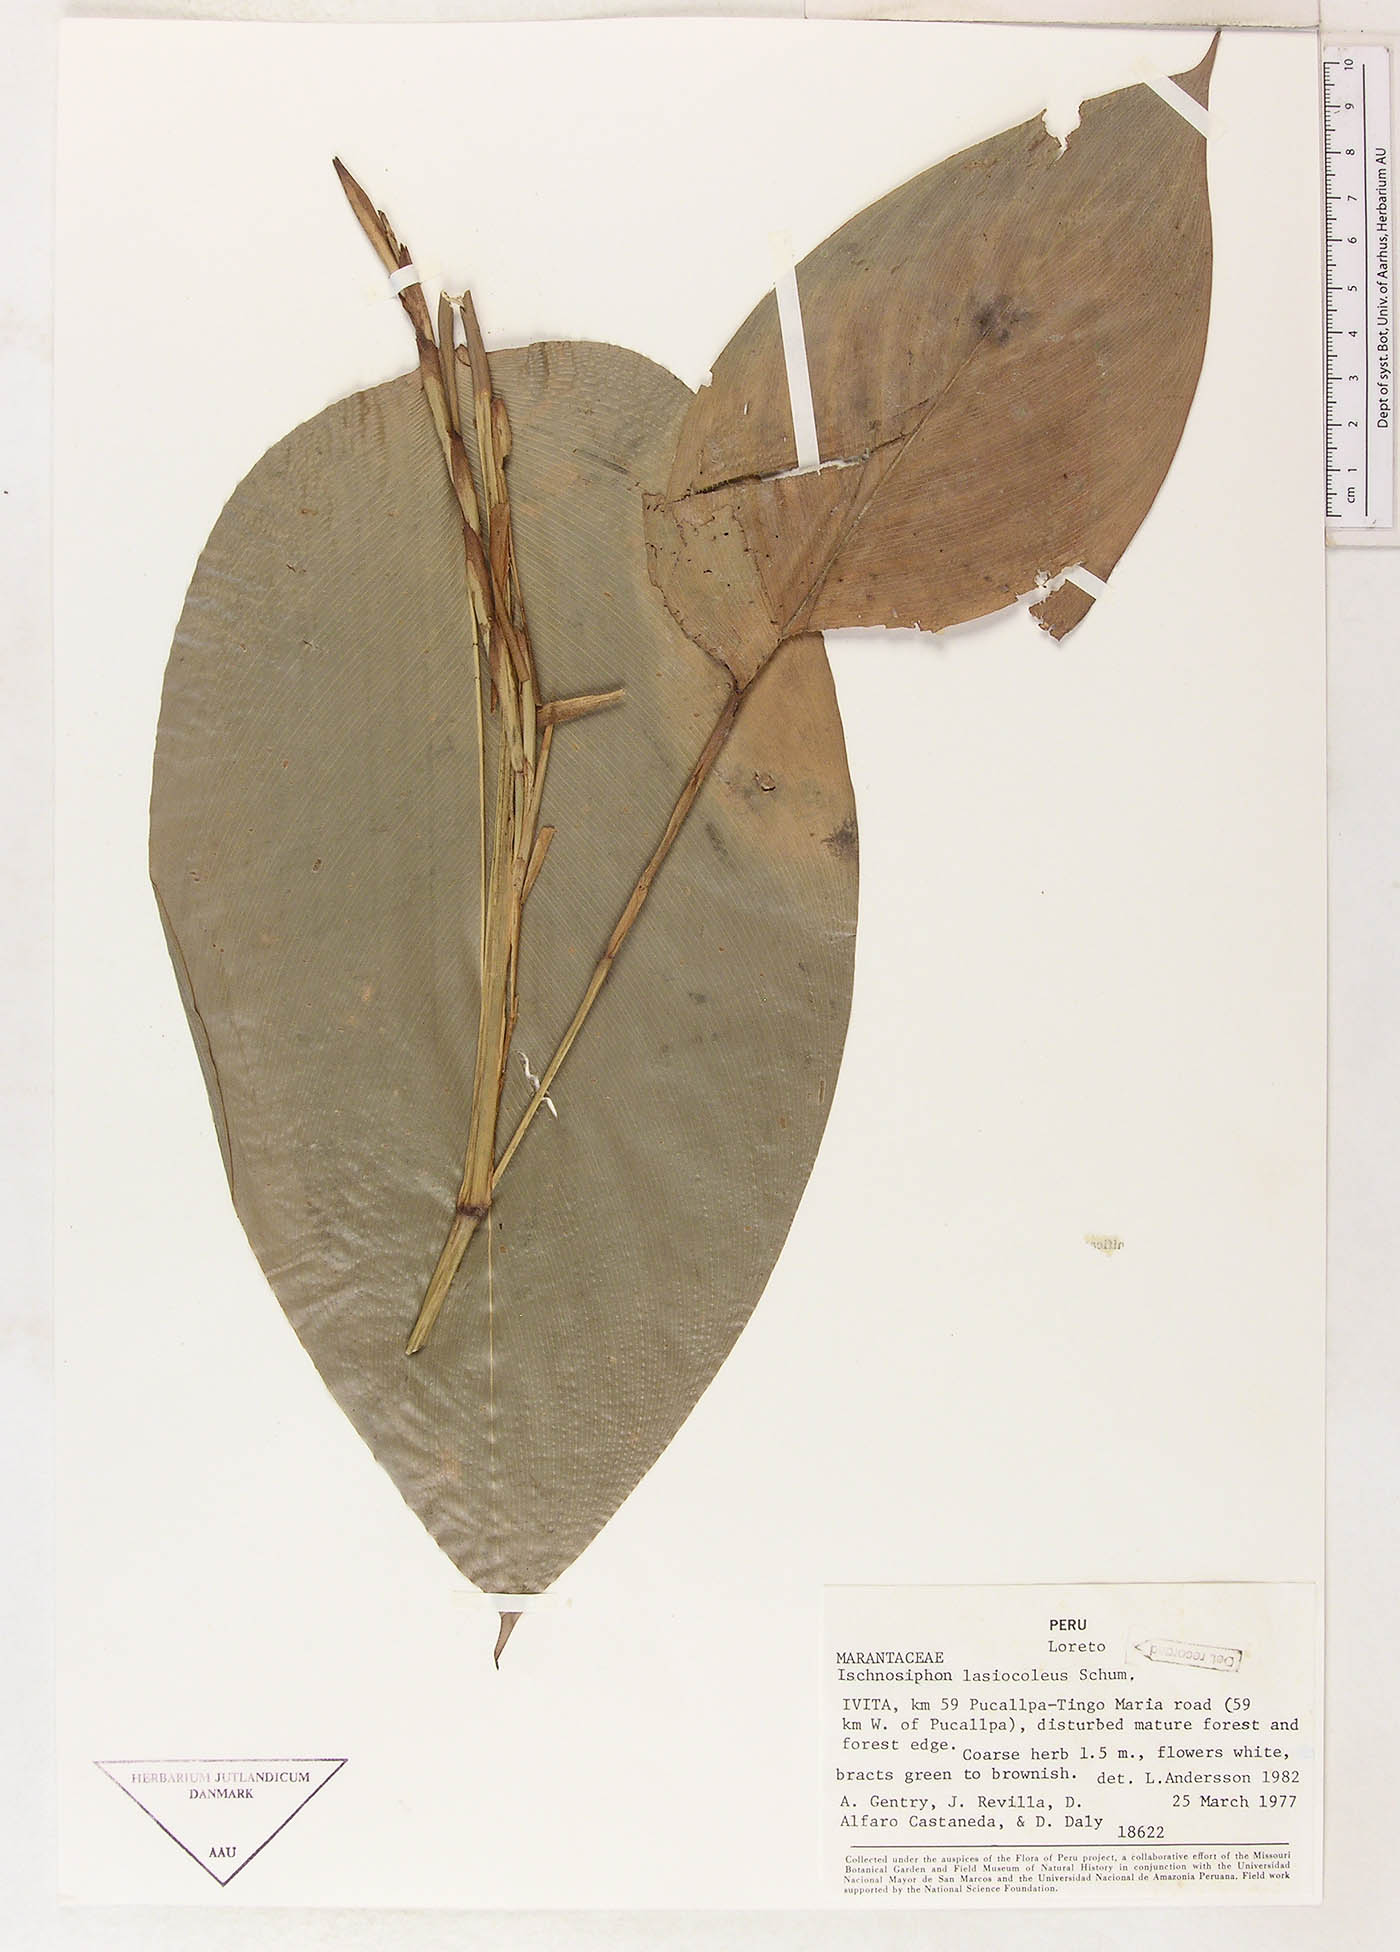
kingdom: Plantae
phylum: Tracheophyta
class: Liliopsida
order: Zingiberales
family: Marantaceae
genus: Ischnosiphon
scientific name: Ischnosiphon lasiocoleus
